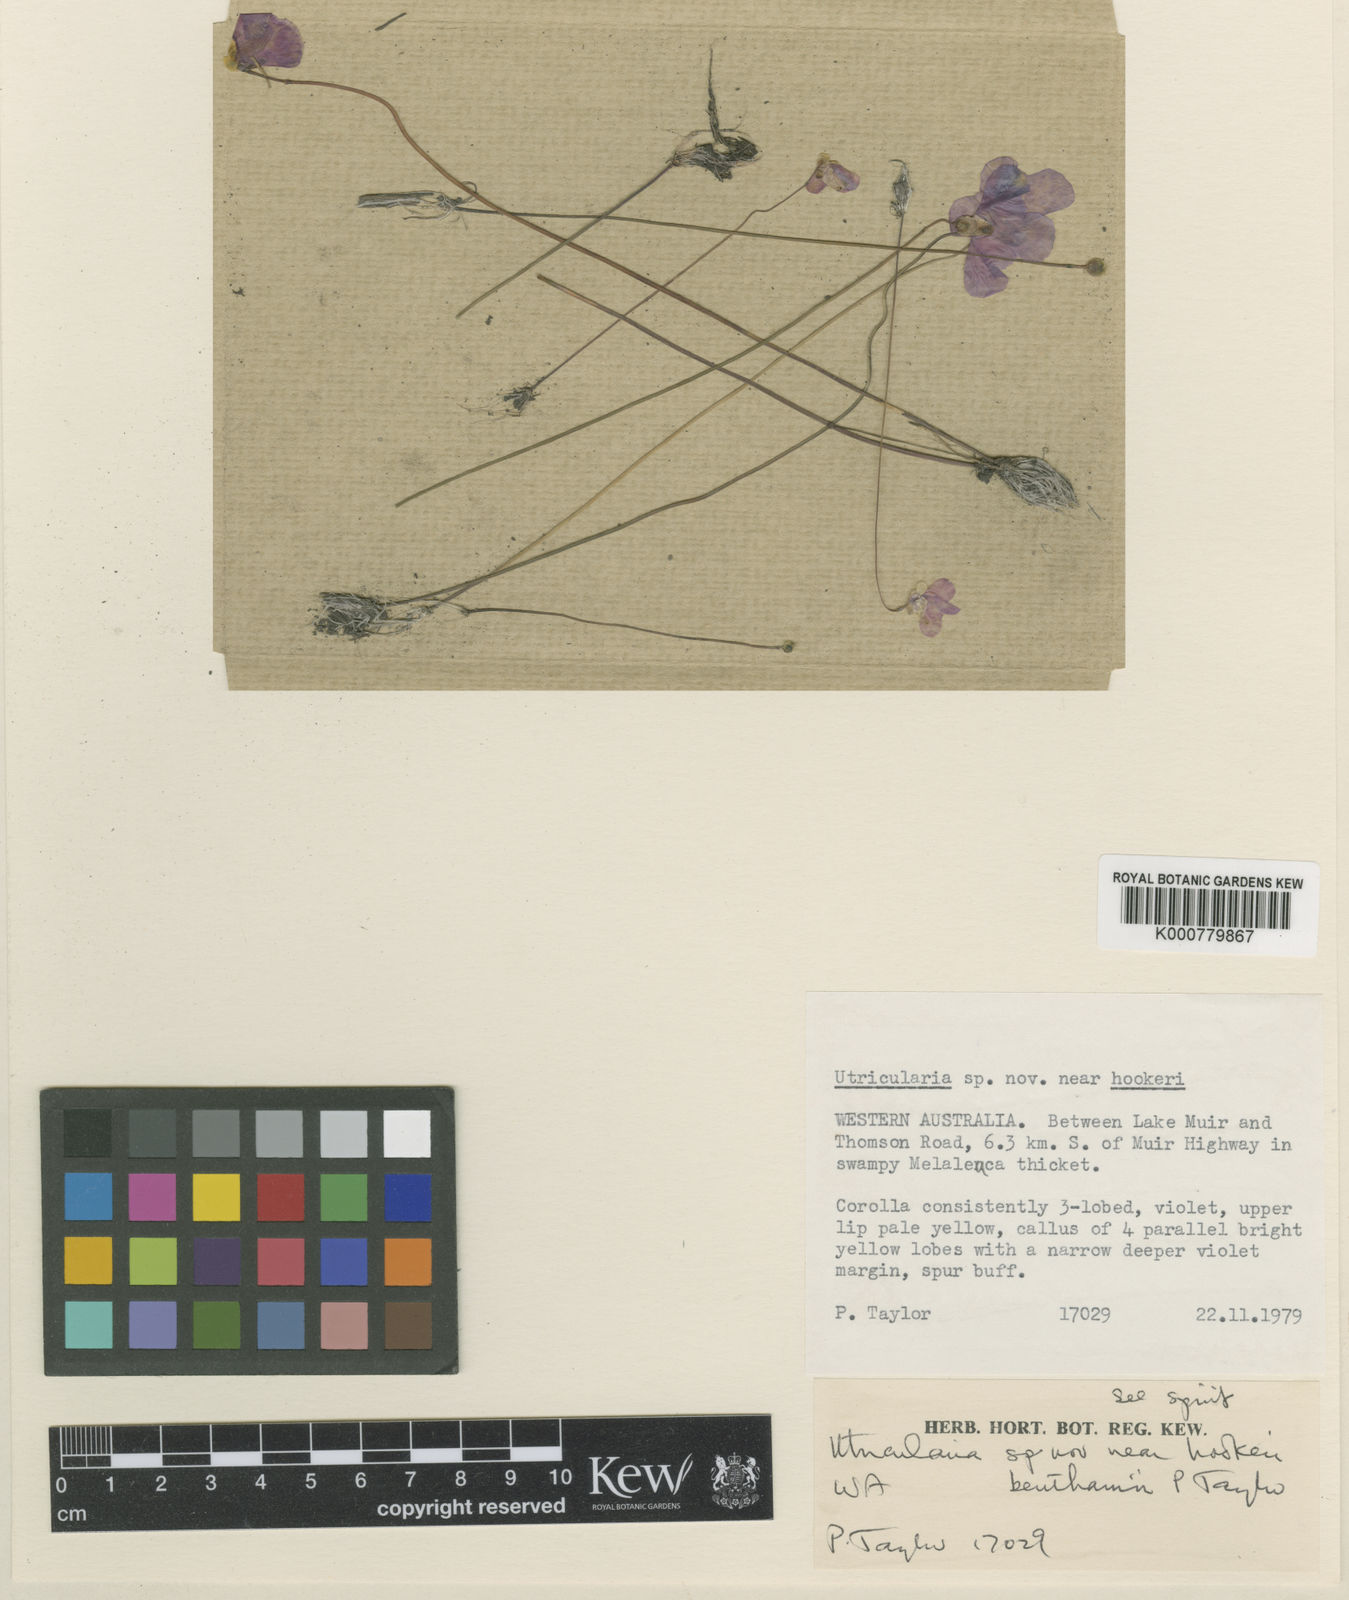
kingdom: Plantae
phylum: Tracheophyta
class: Magnoliopsida
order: Lamiales
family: Lentibulariaceae
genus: Utricularia
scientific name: Utricularia benthamii
